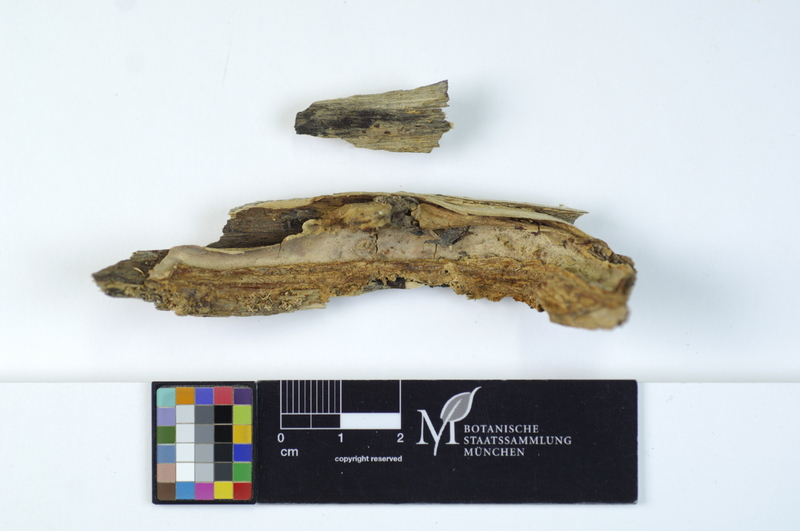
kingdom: Plantae
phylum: Tracheophyta
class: Magnoliopsida
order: Malpighiales
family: Salicaceae
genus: Salix
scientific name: Salix
